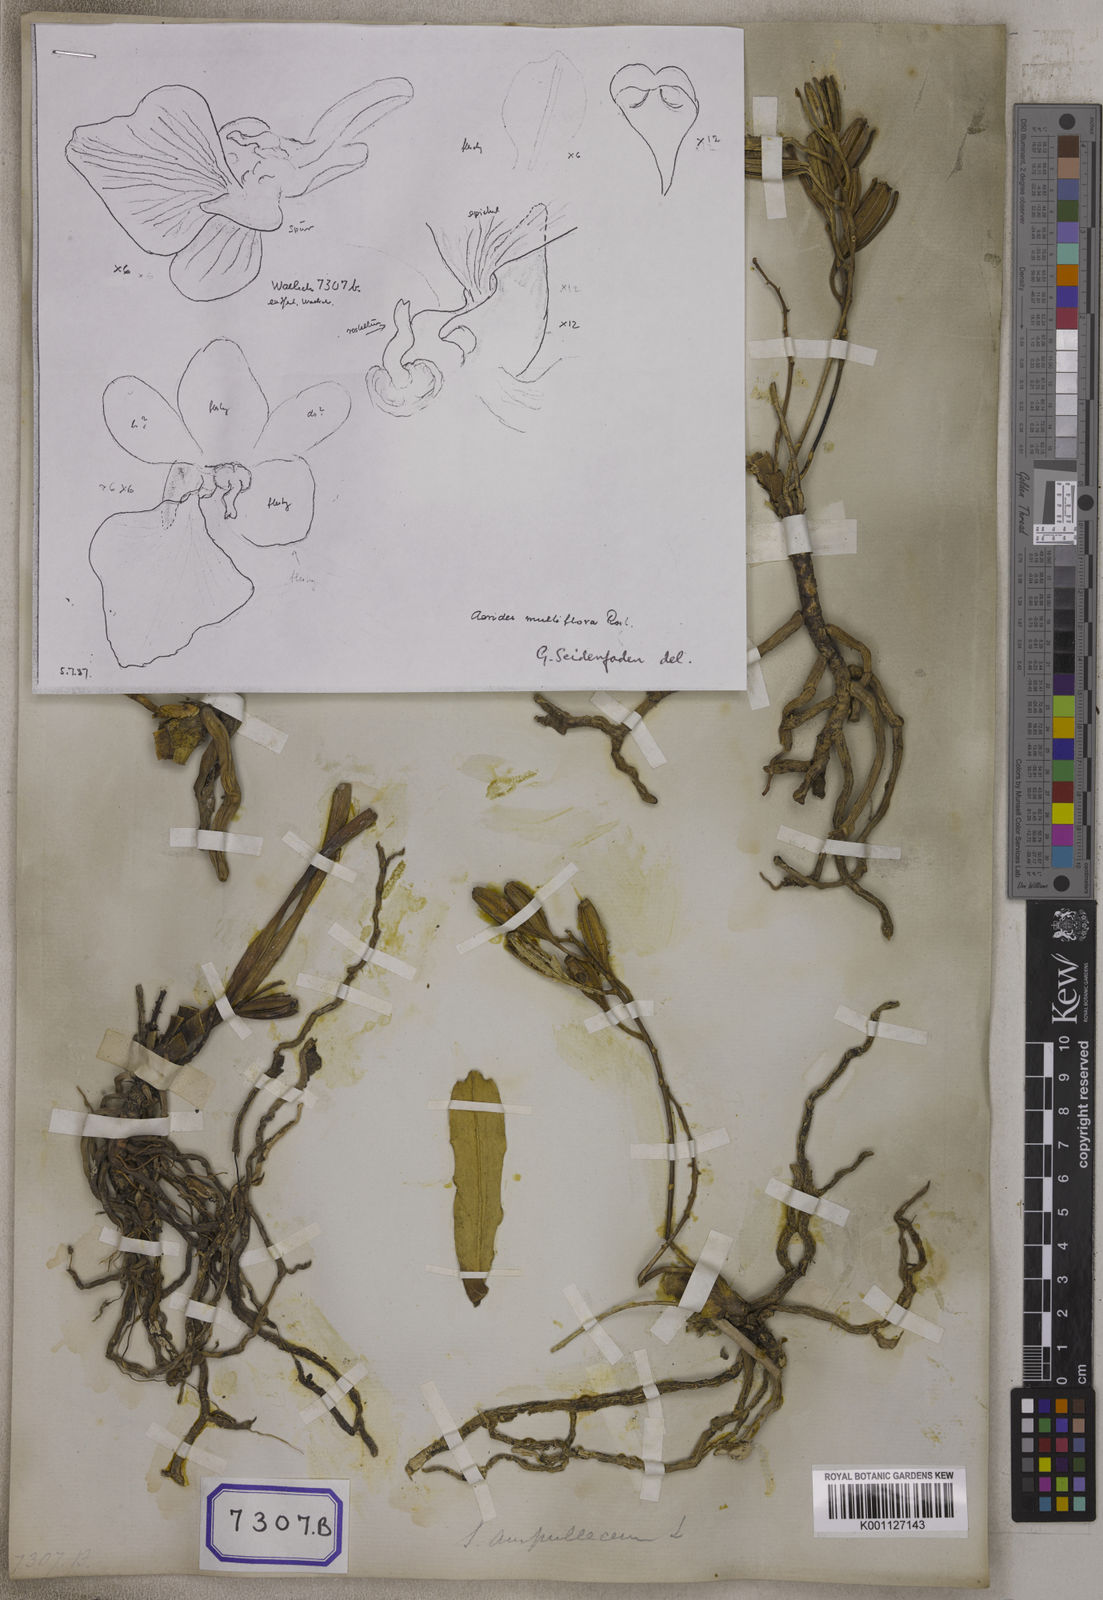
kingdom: Plantae
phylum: Tracheophyta
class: Liliopsida
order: Asparagales
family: Orchidaceae
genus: Vanda
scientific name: Vanda ampullacea
